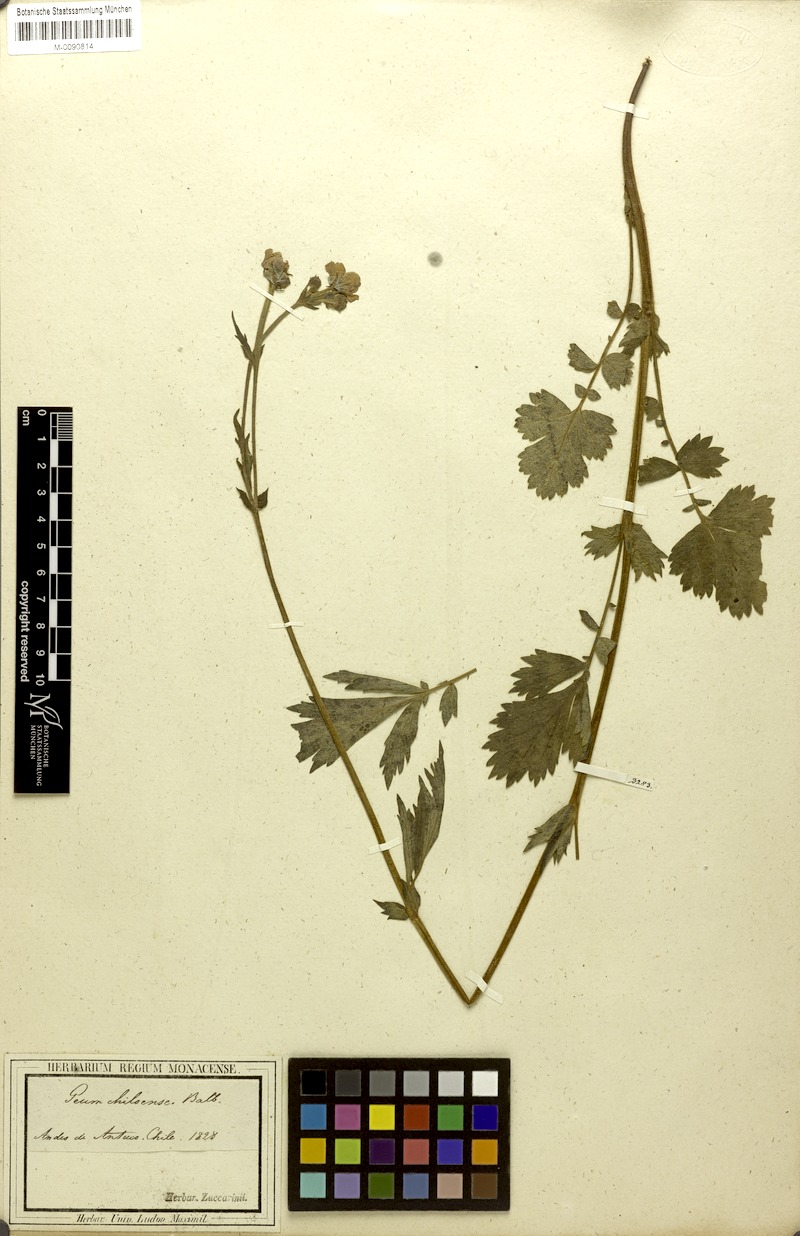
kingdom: Plantae
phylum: Tracheophyta
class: Magnoliopsida
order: Rosales
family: Rosaceae
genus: Geum
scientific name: Geum quellyon
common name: Scarlet avens
